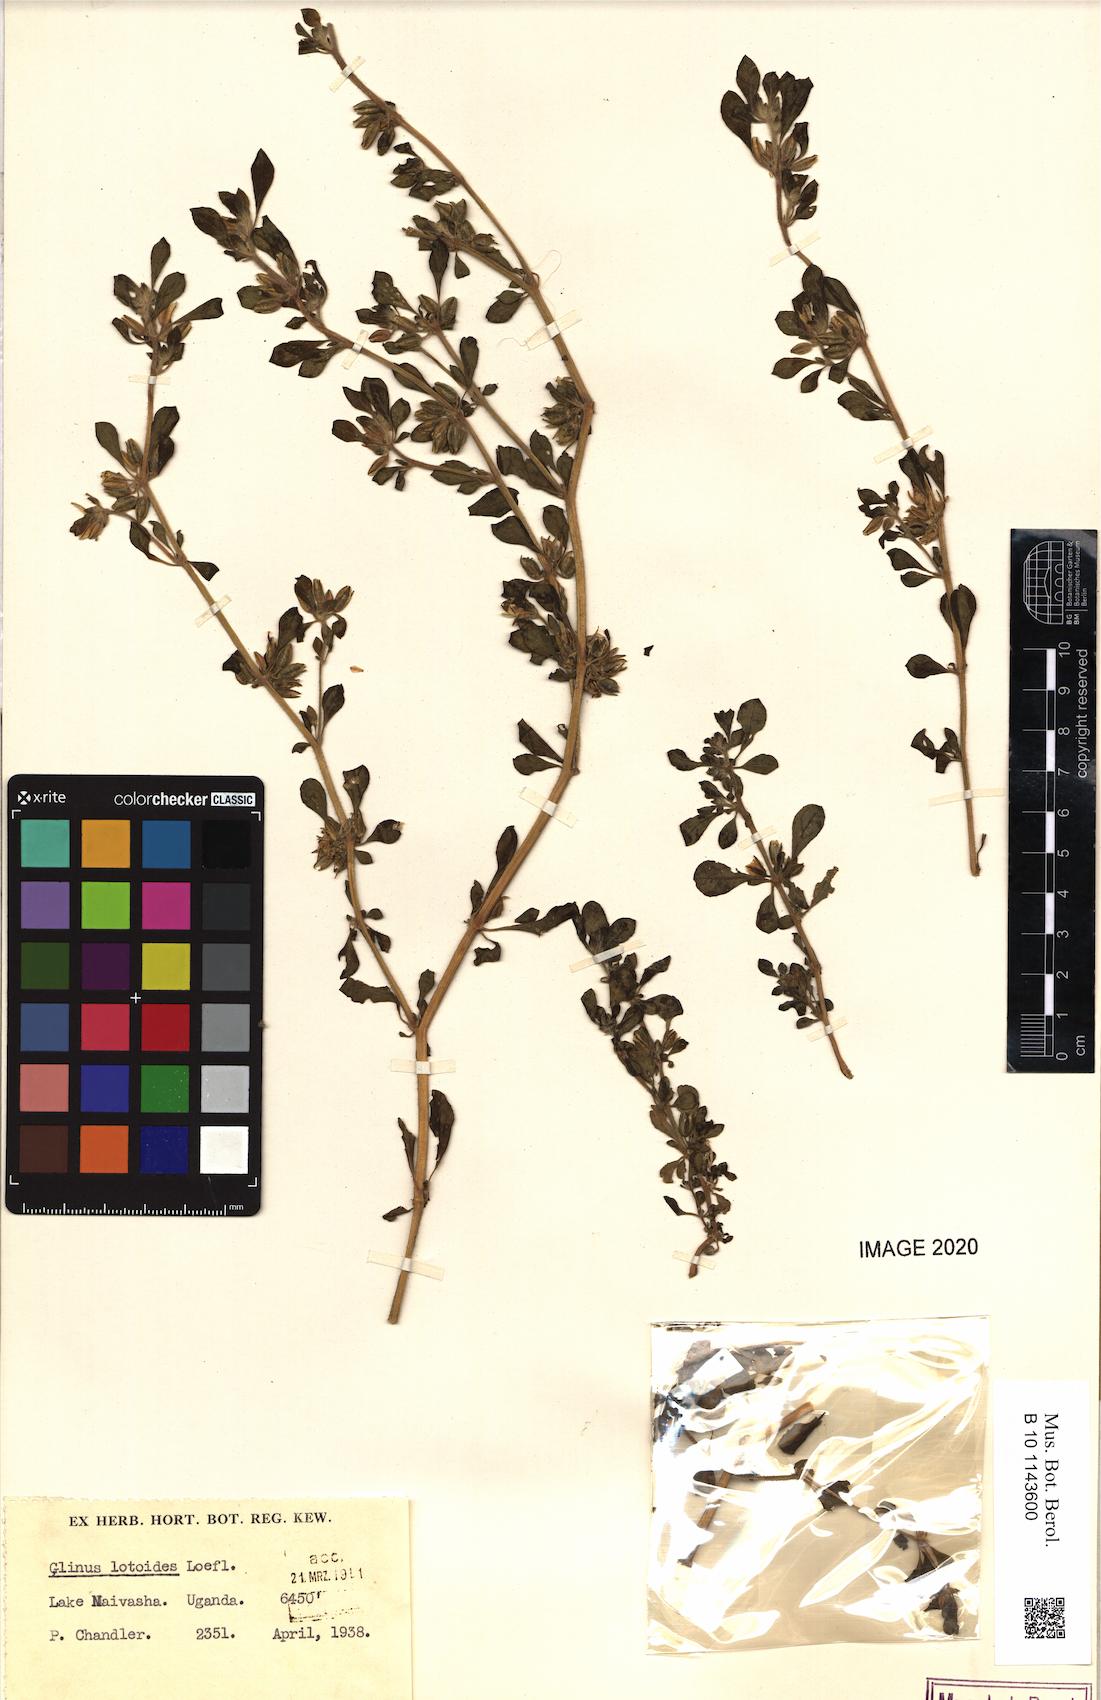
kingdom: Plantae
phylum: Tracheophyta
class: Magnoliopsida
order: Caryophyllales
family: Molluginaceae
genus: Glinus
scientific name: Glinus zambesiacus
